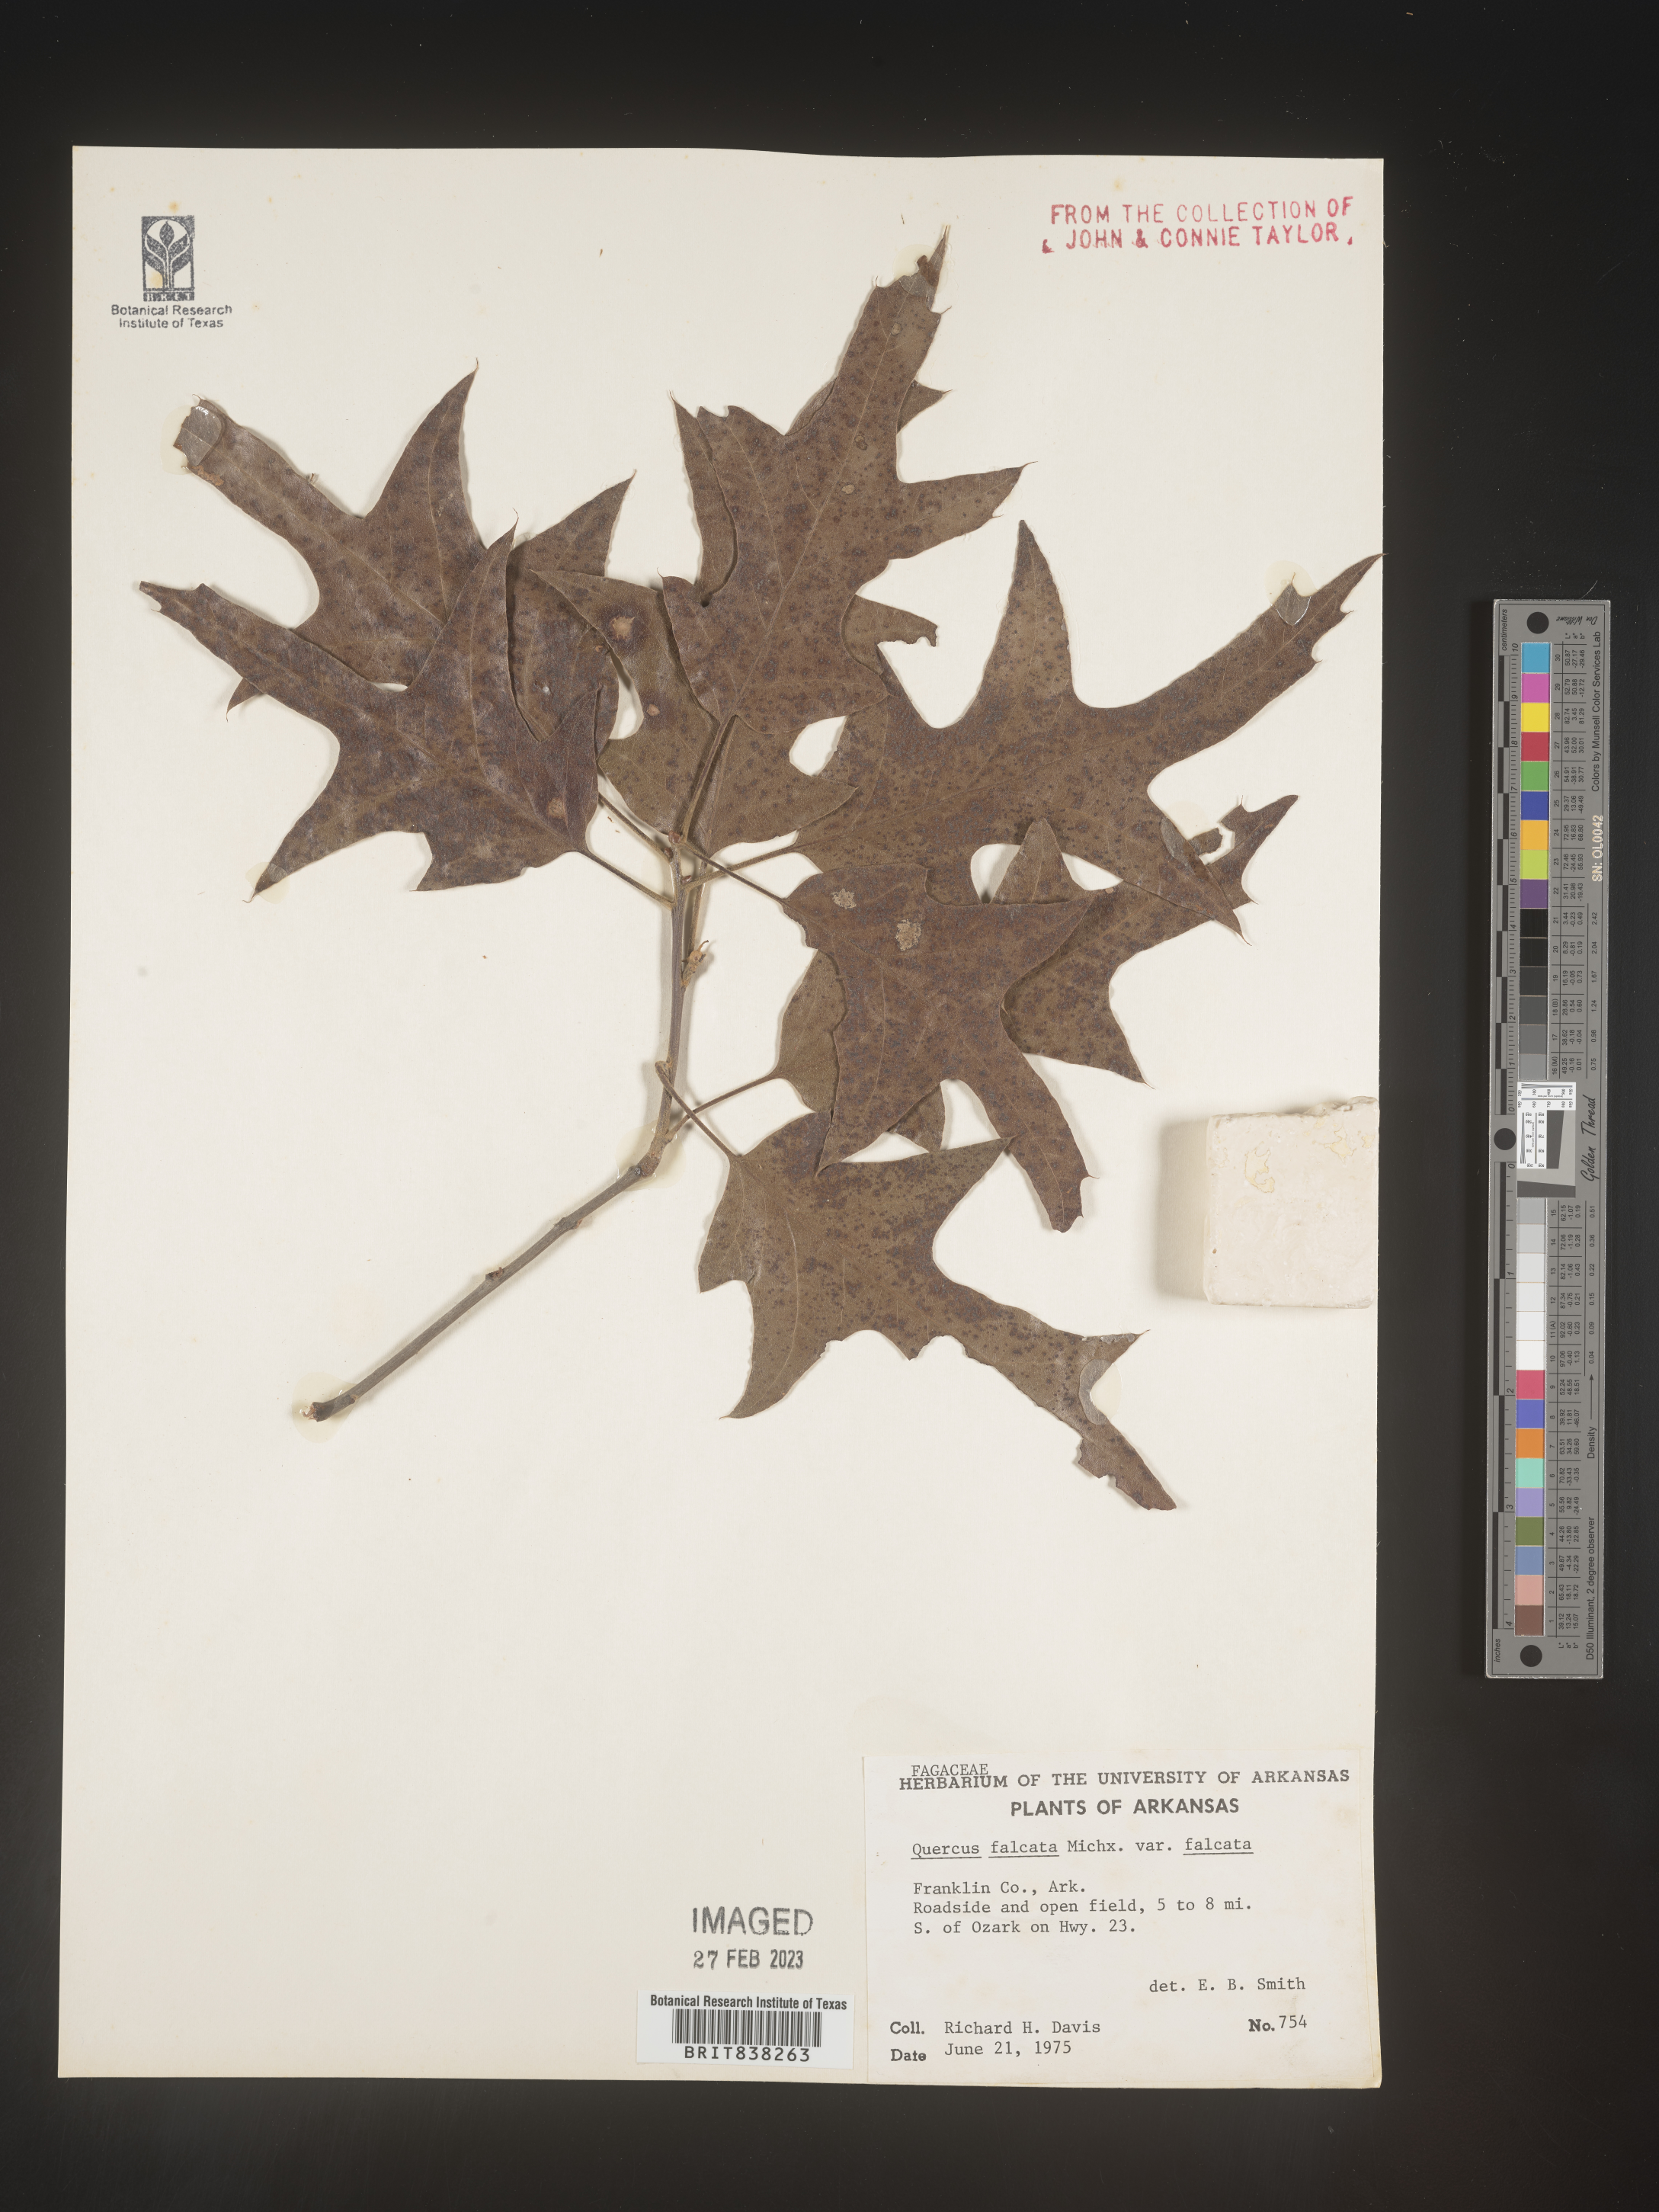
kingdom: Plantae
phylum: Tracheophyta
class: Magnoliopsida
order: Fagales
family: Fagaceae
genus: Quercus
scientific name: Quercus falcata
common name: Southern red oak
